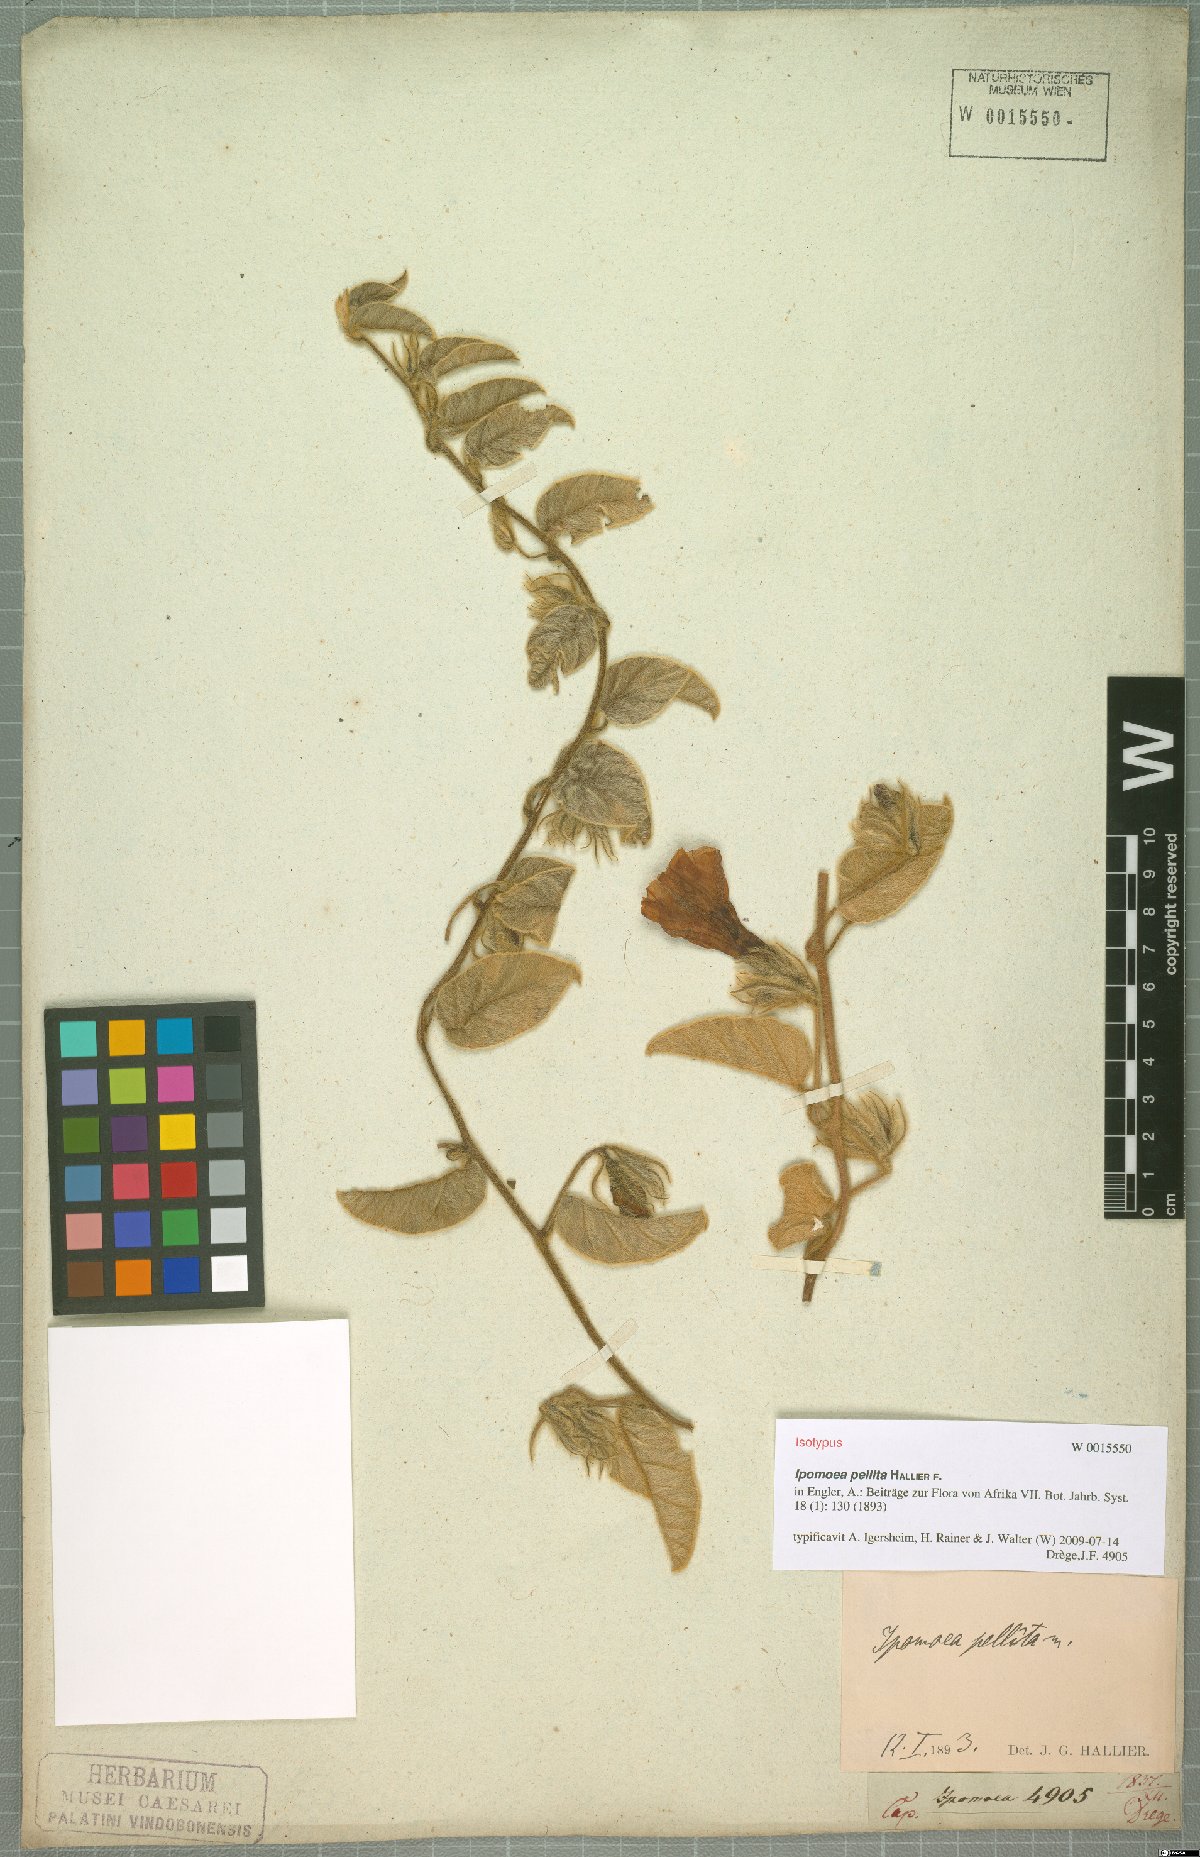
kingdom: Plantae
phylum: Tracheophyta
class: Magnoliopsida
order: Solanales
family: Convolvulaceae
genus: Ipomoea
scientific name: Ipomoea pellita
